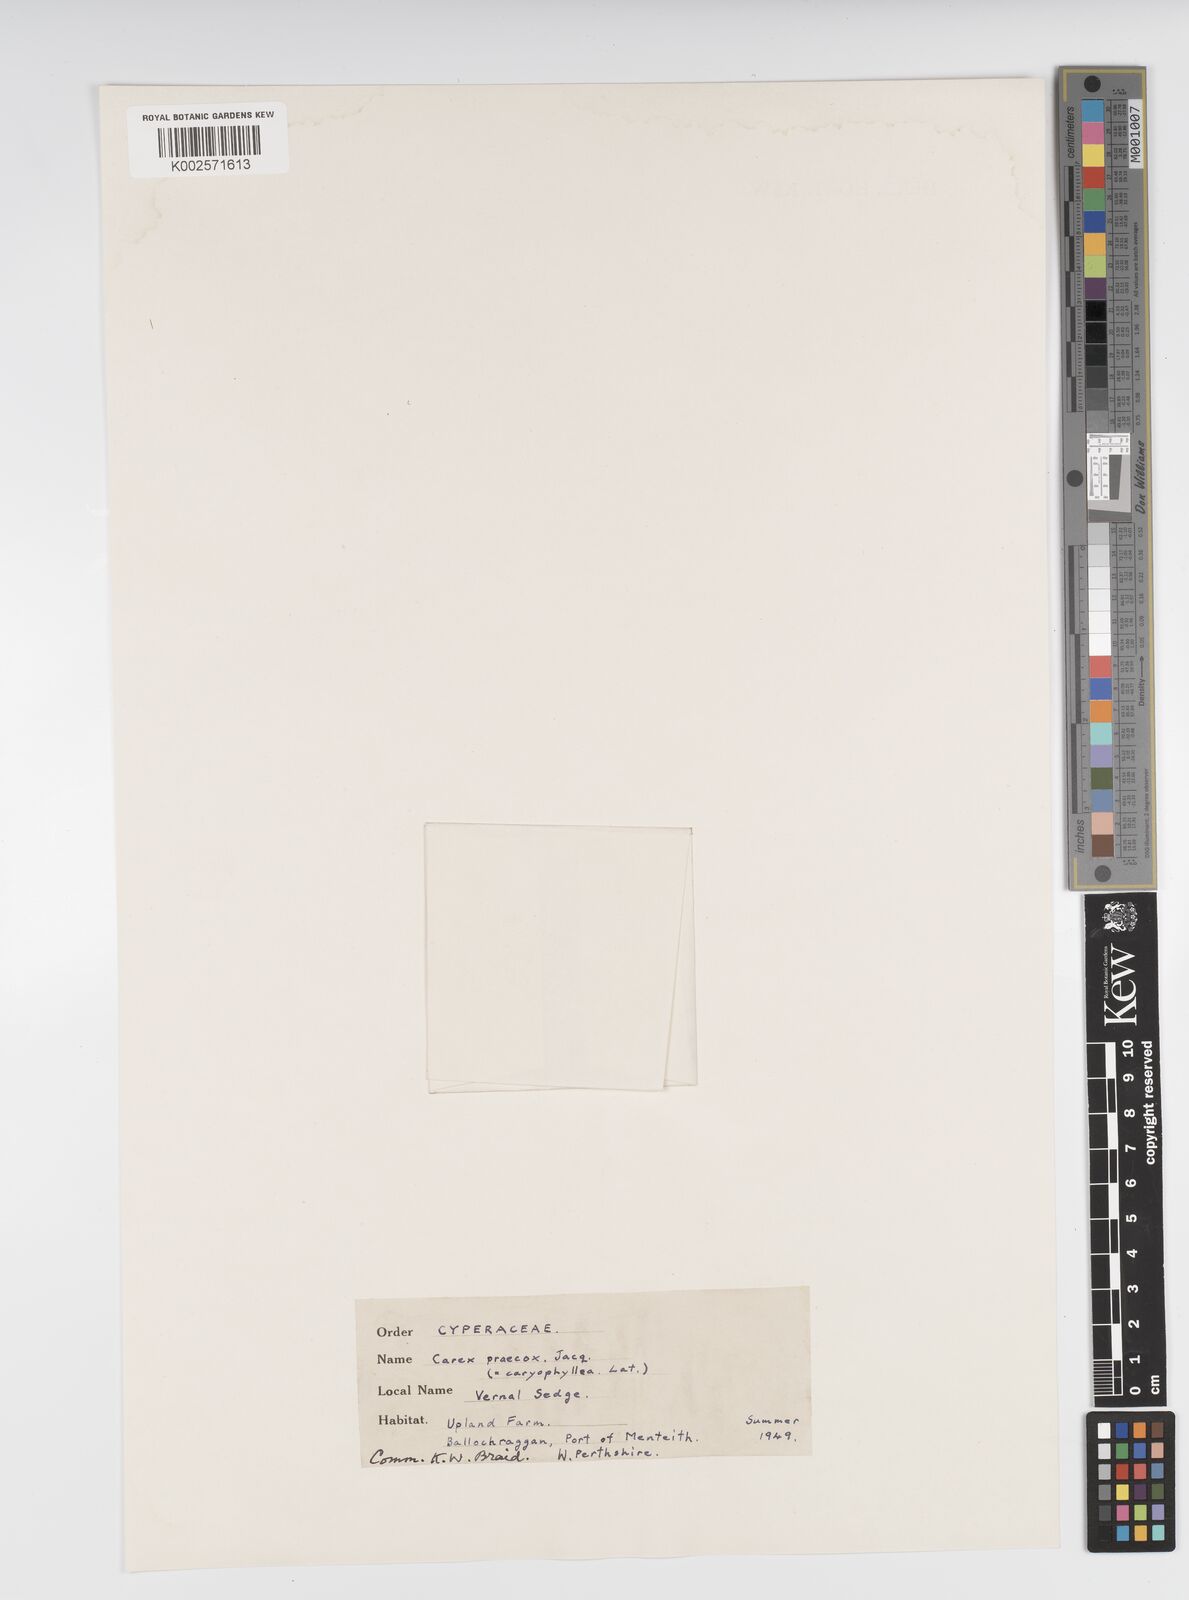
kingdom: Plantae
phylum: Tracheophyta
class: Liliopsida
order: Poales
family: Cyperaceae
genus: Carex
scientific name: Carex caryophyllea
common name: Spring sedge
